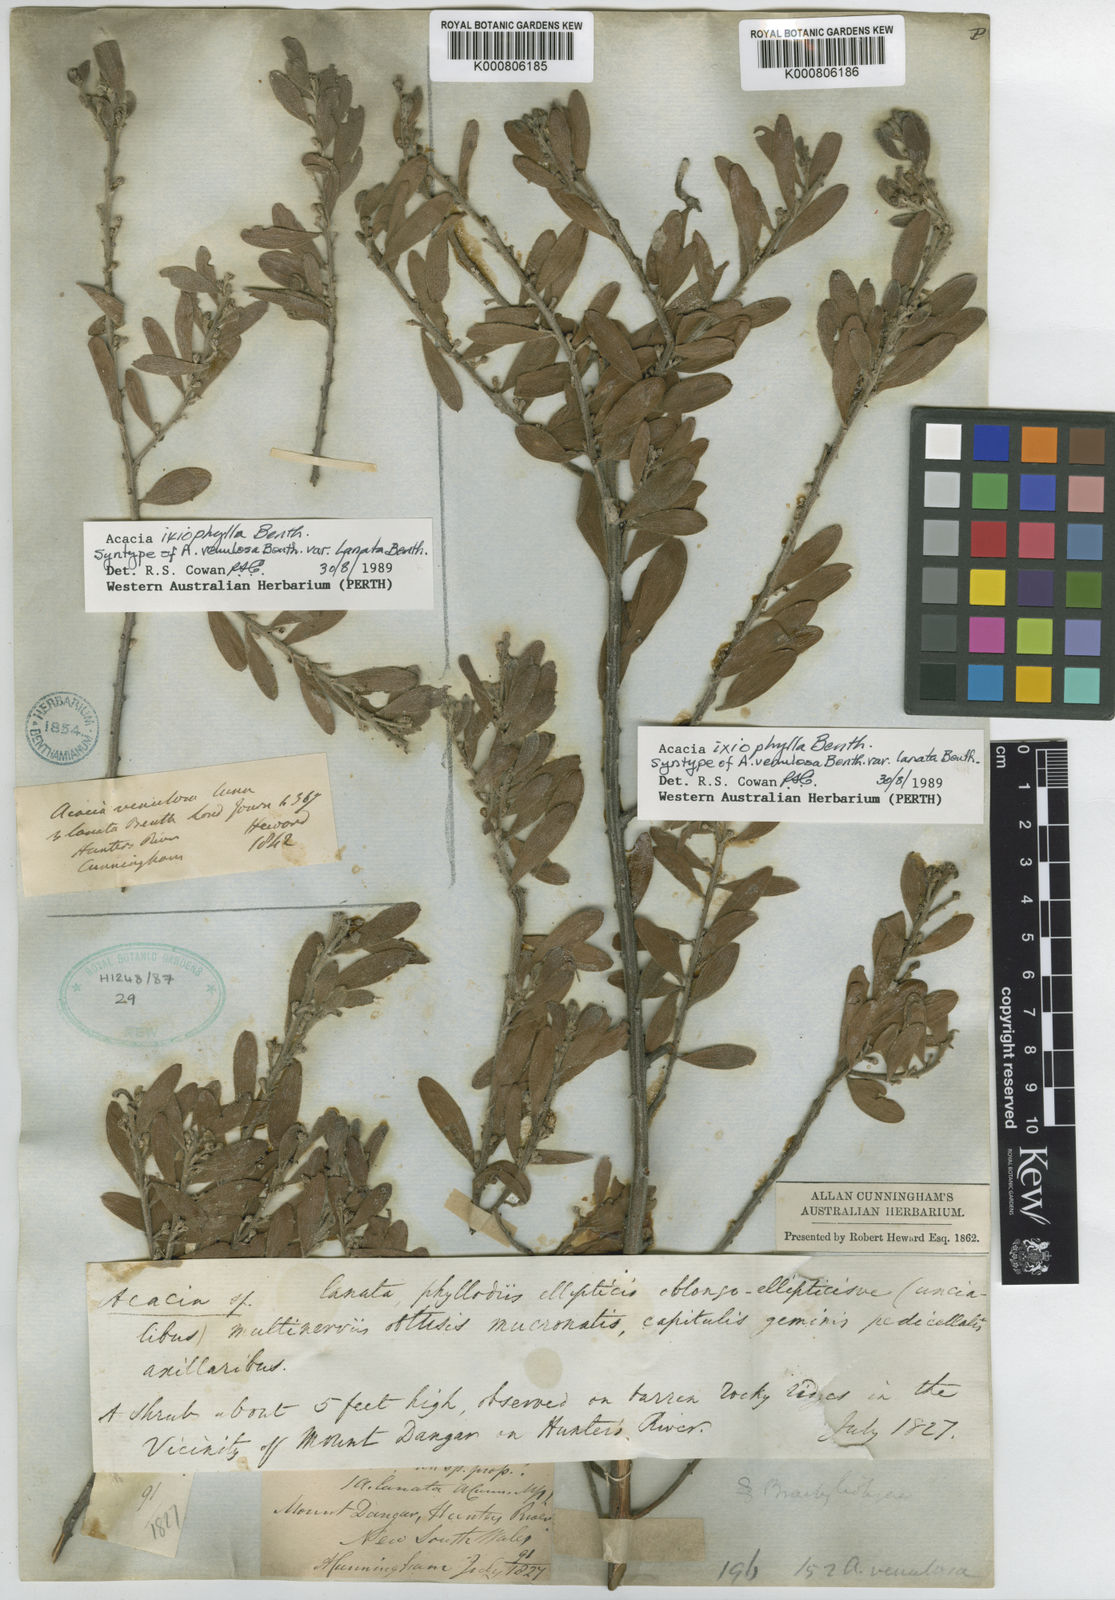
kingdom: Plantae
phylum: Tracheophyta
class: Magnoliopsida
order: Fabales
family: Fabaceae
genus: Acacia
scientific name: Acacia ixiophylla
